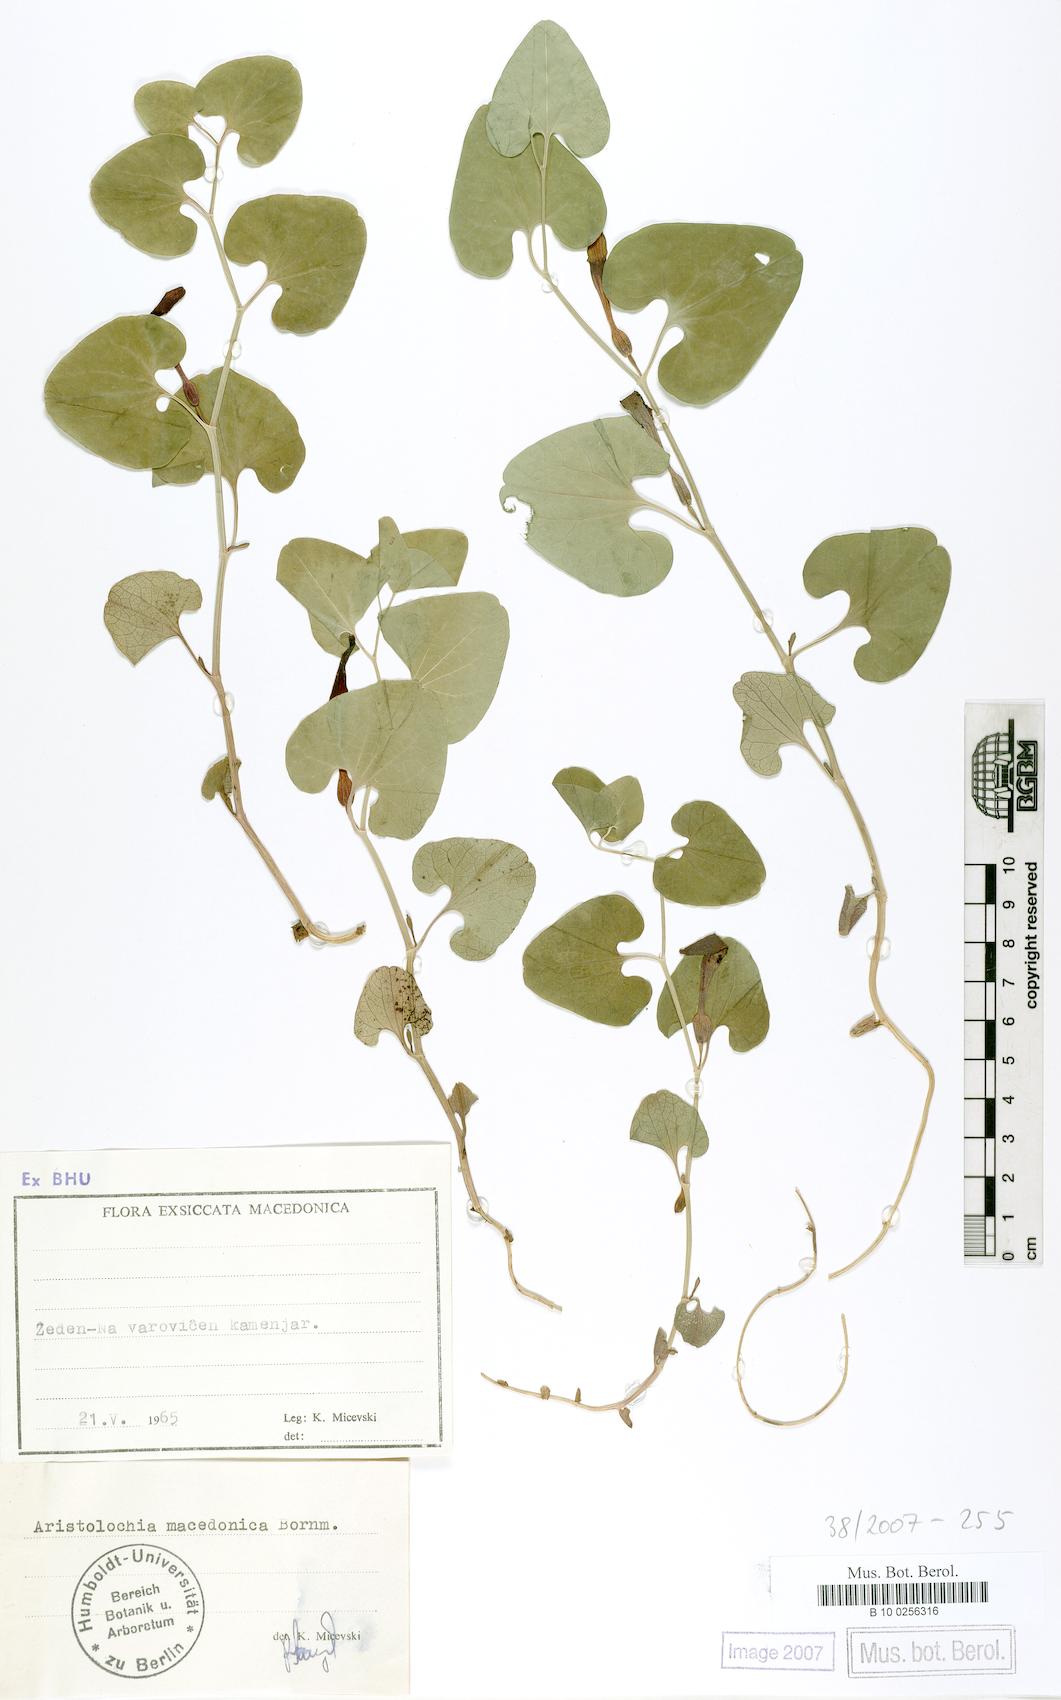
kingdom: Plantae
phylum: Tracheophyta
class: Magnoliopsida
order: Piperales
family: Aristolochiaceae
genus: Aristolochia
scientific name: Aristolochia pallida
